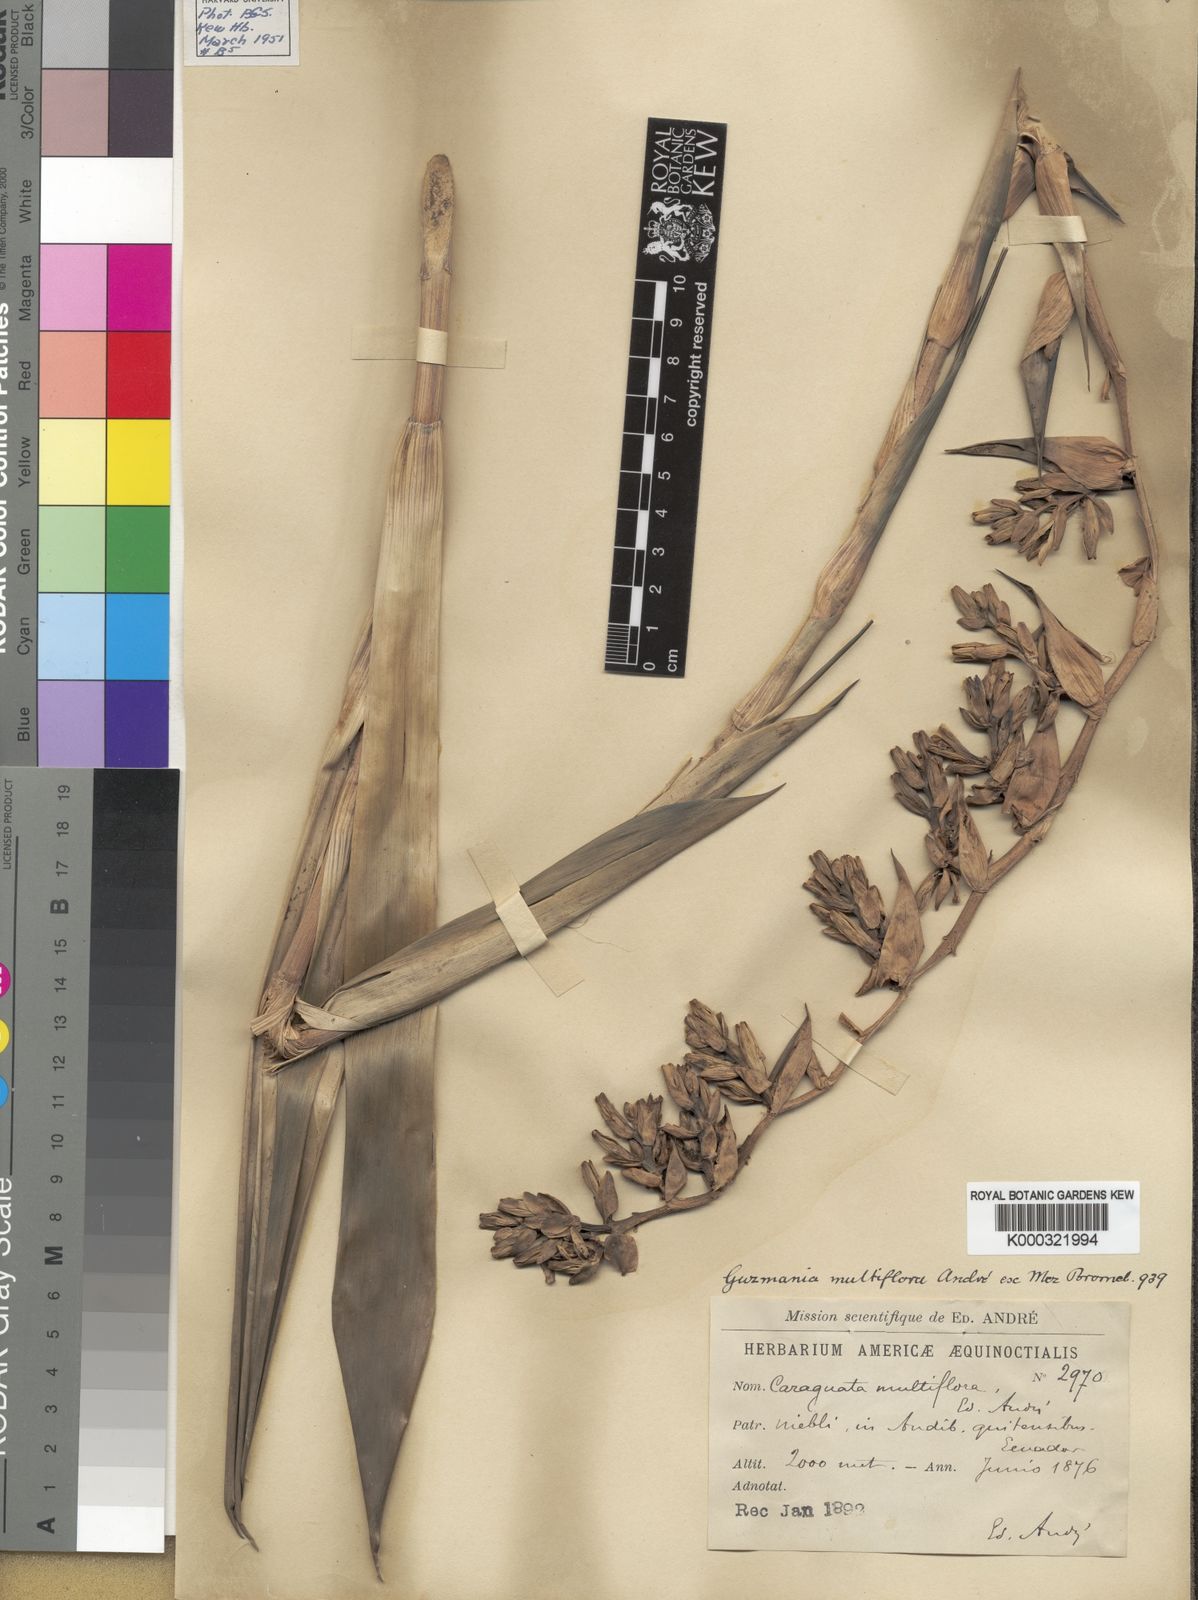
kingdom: Plantae
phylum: Tracheophyta
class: Liliopsida
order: Poales
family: Bromeliaceae
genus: Guzmania
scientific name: Guzmania multiflora
